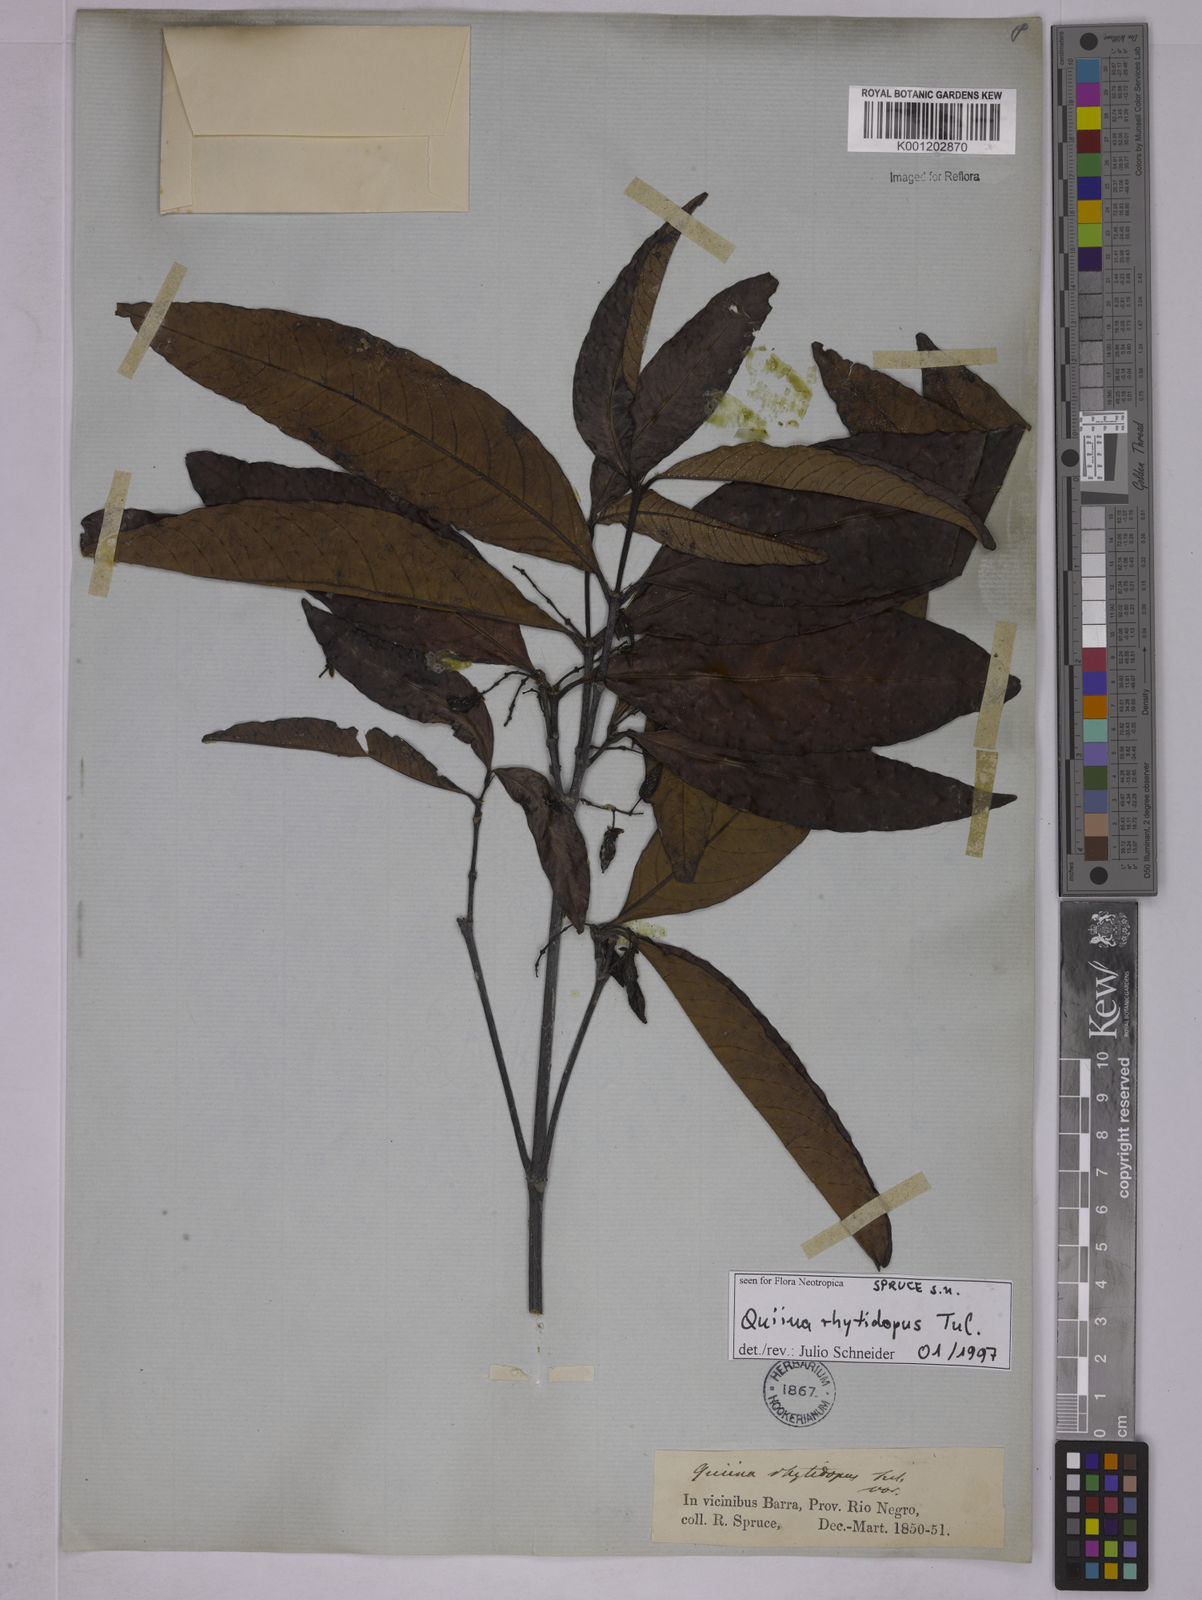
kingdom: Plantae
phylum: Tracheophyta
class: Magnoliopsida
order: Malpighiales
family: Quiinaceae
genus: Quiina
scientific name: Quiina rhytidopus
